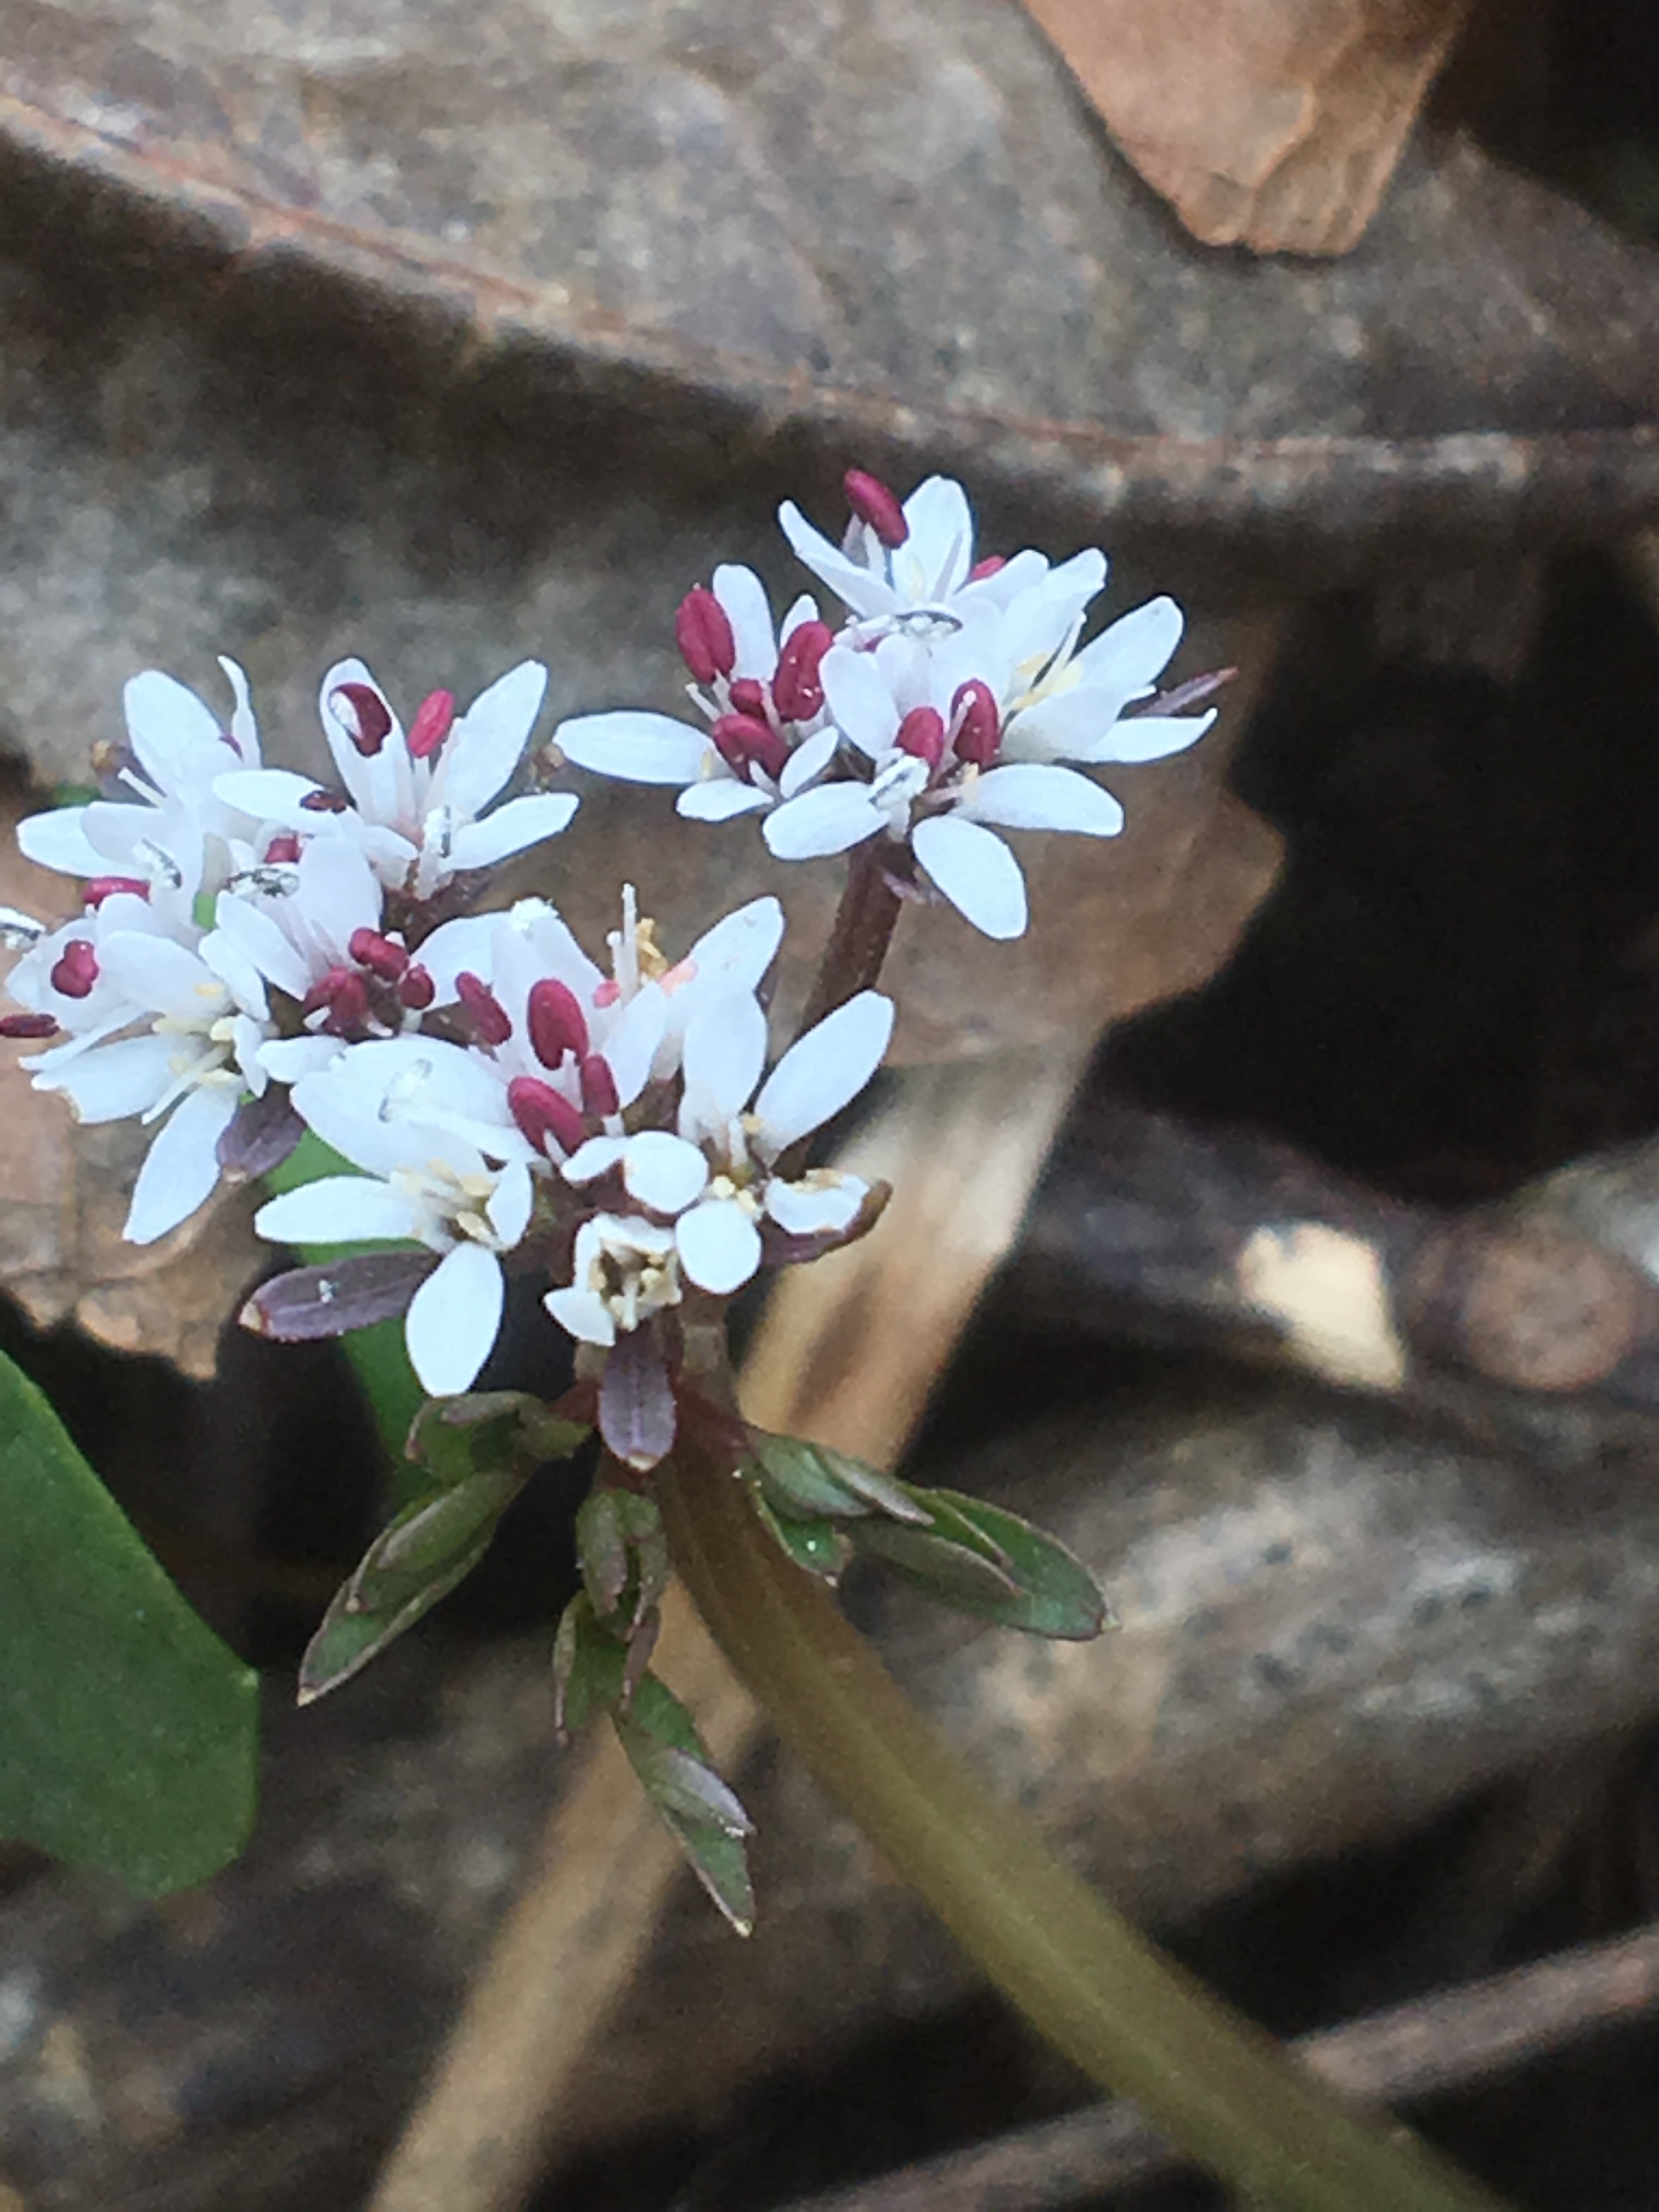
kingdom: Plantae
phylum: Tracheophyta
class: Magnoliopsida
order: Apiales
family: Apiaceae
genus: Erigenia
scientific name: Erigenia bulbosa
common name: Harbinger-of-Spring
